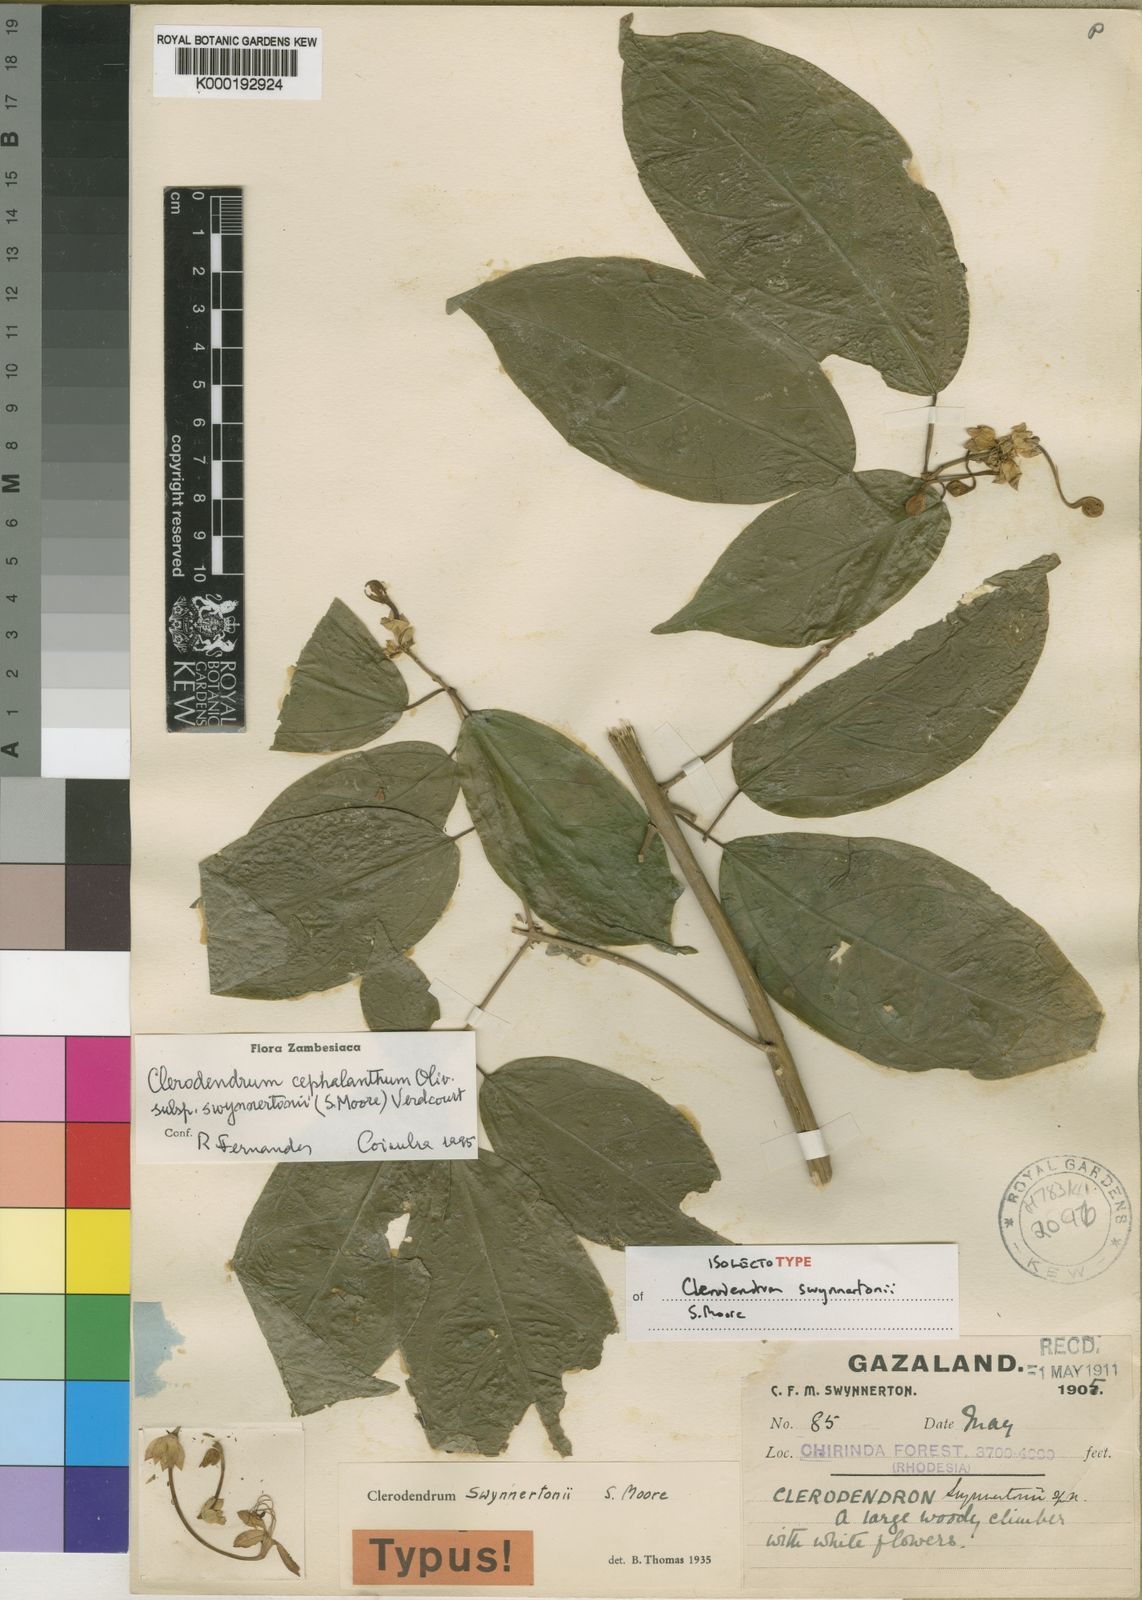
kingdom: Plantae
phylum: Tracheophyta
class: Magnoliopsida
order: Lamiales
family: Lamiaceae
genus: Clerodendrum
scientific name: Clerodendrum cephalanthum
